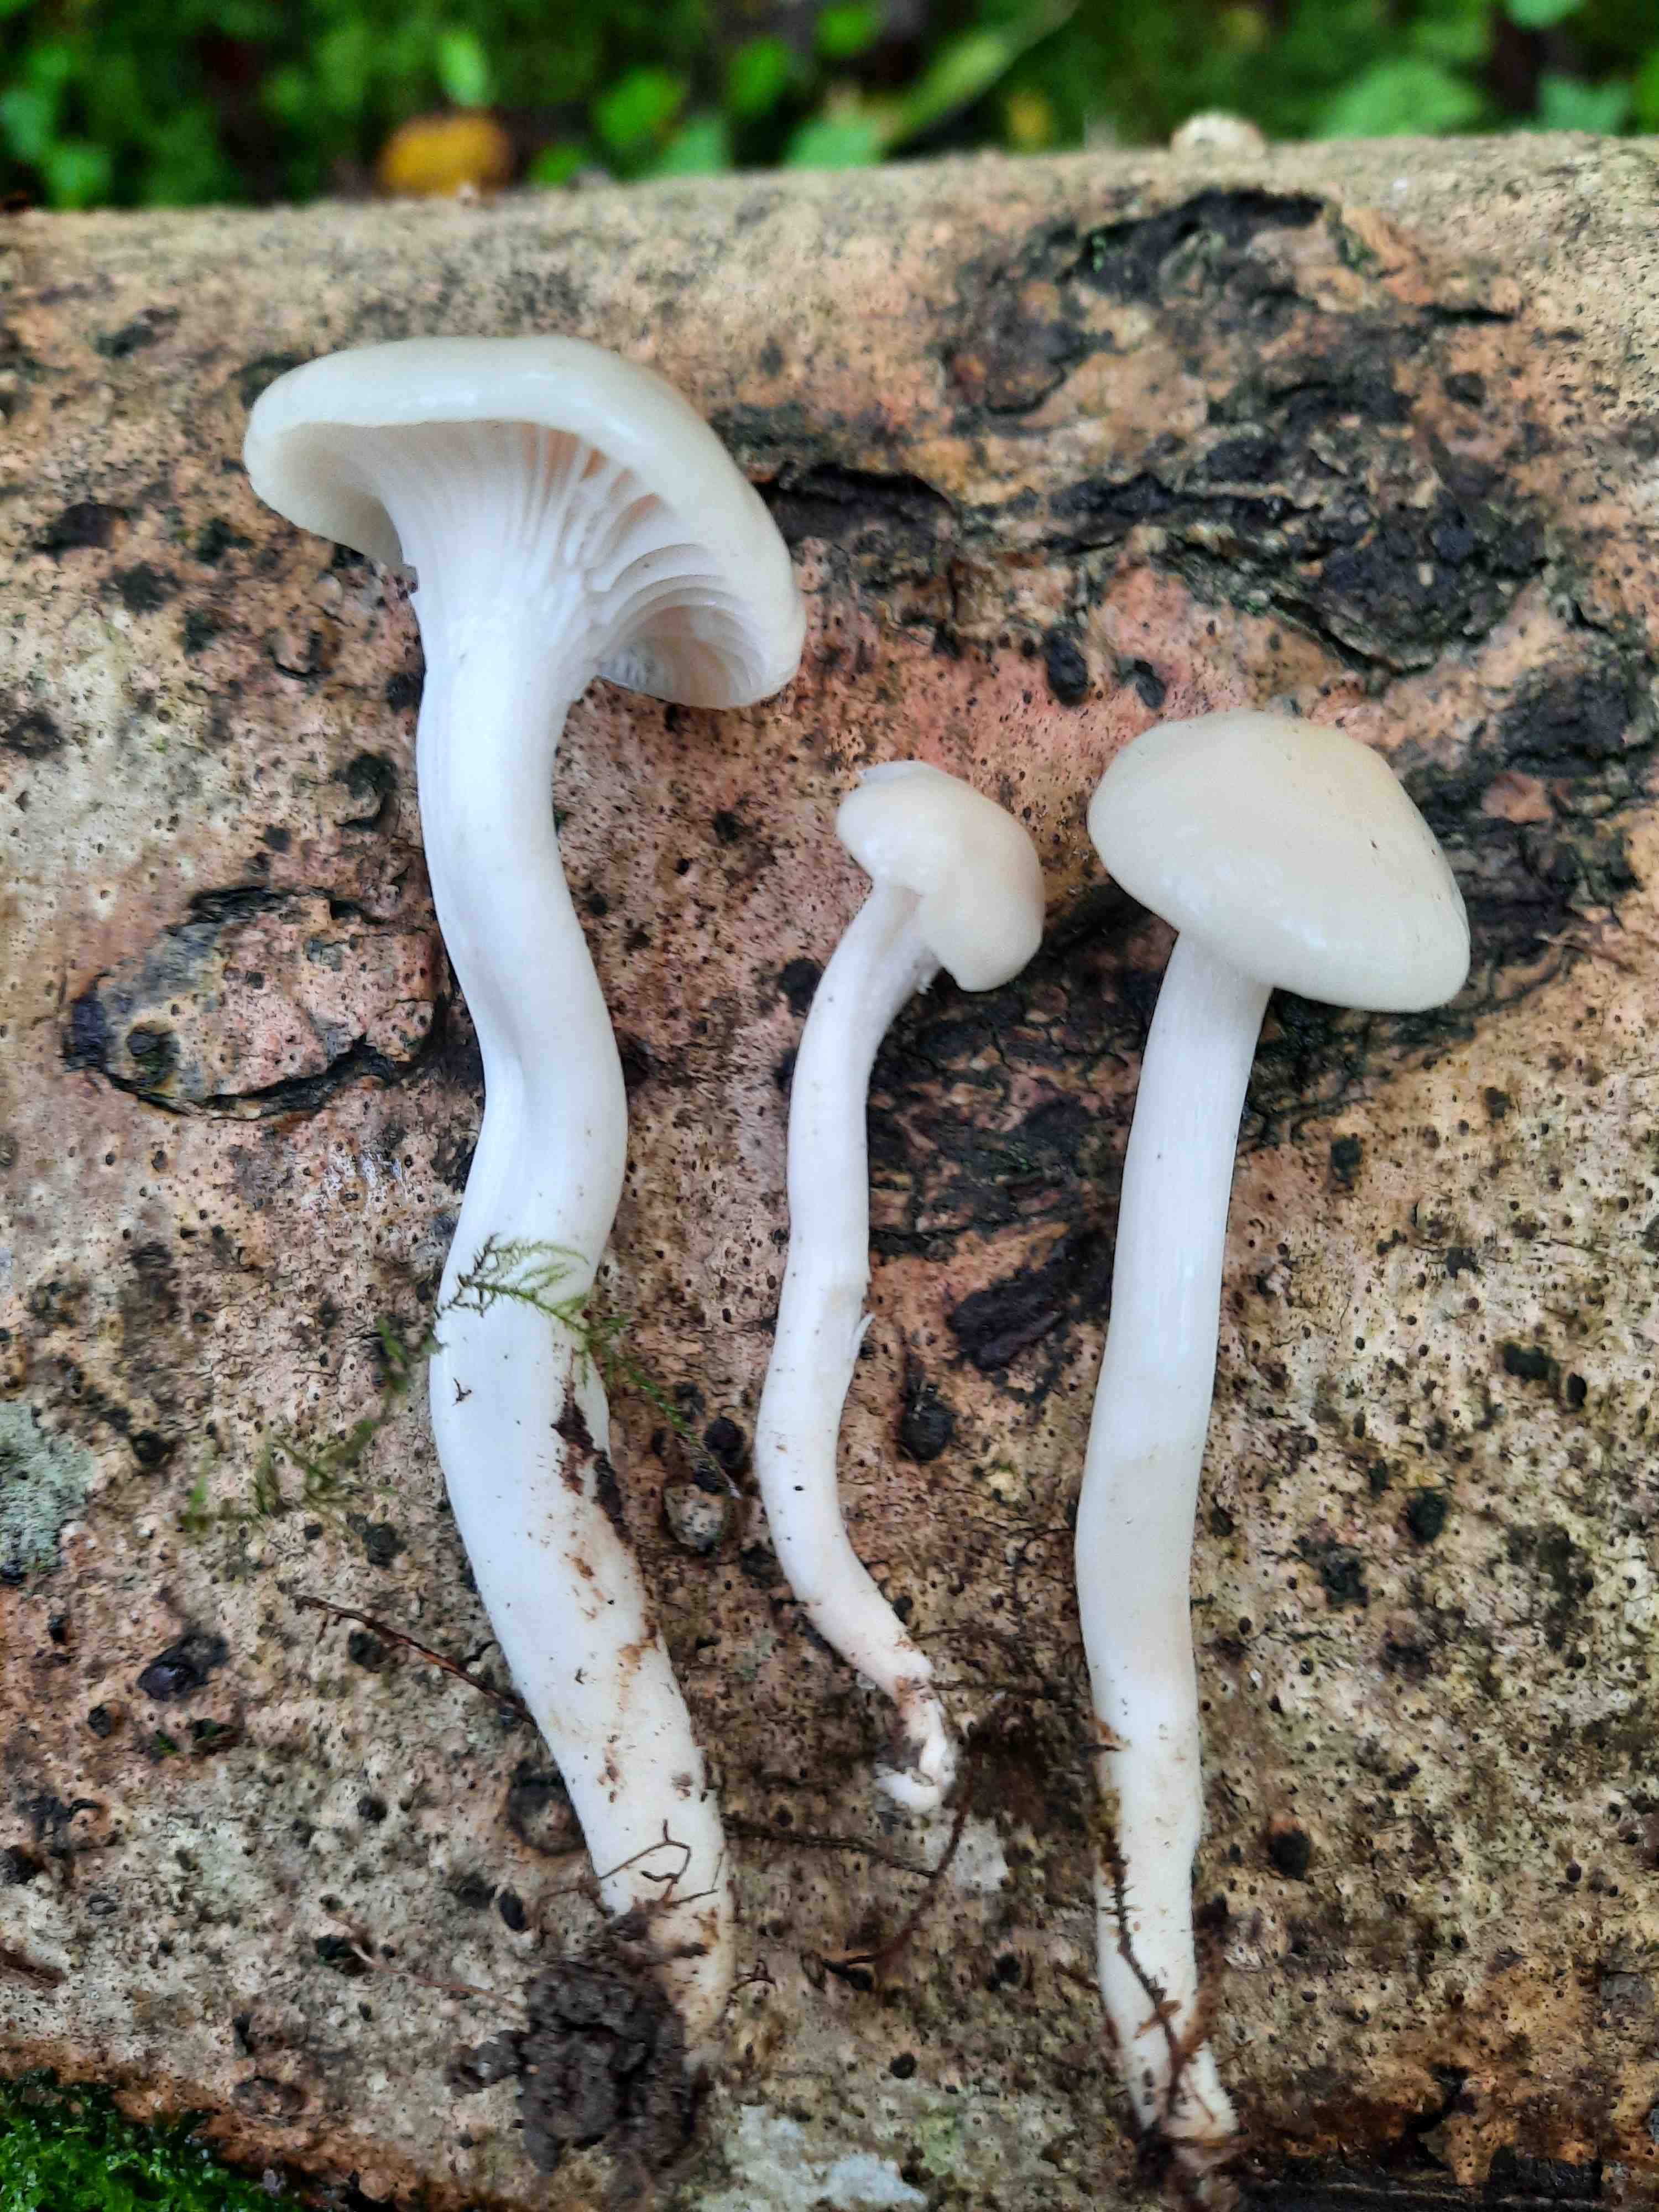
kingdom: Fungi
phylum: Basidiomycota
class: Agaricomycetes
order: Agaricales
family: Hygrophoraceae
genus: Cuphophyllus
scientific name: Cuphophyllus
